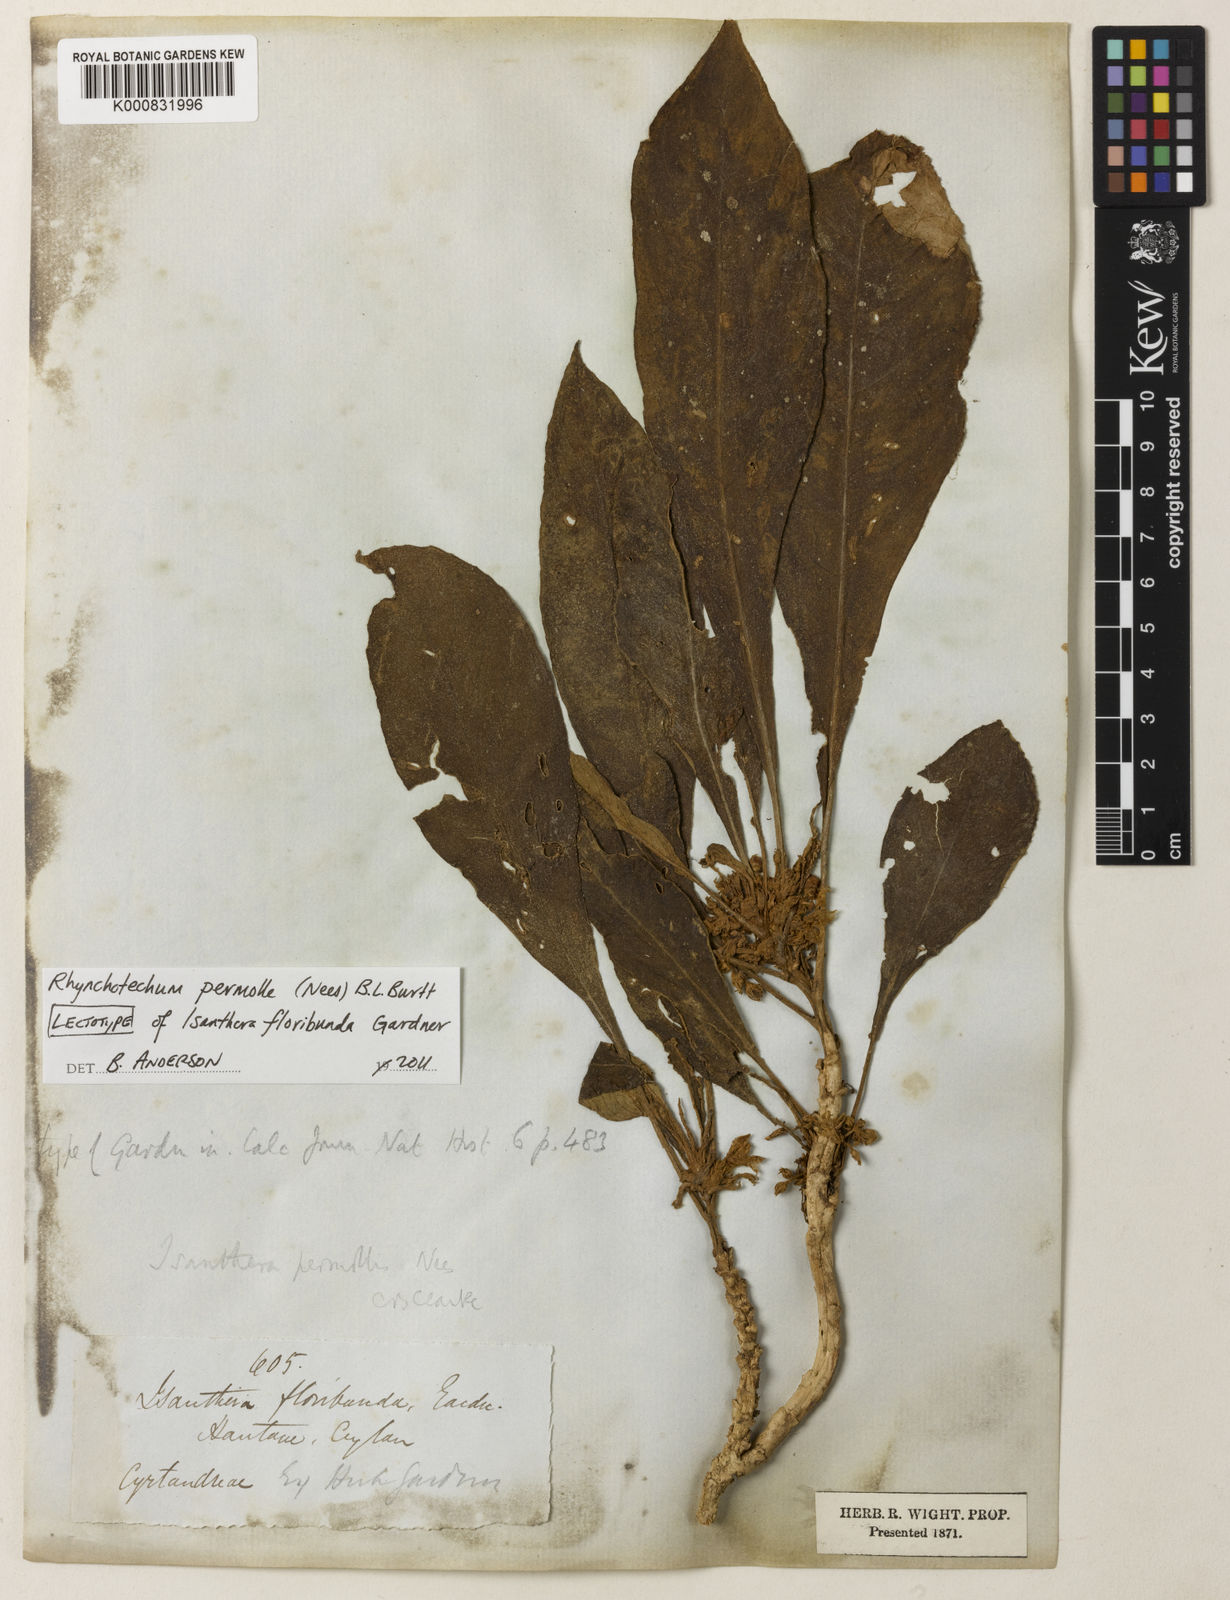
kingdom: Plantae
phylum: Tracheophyta
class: Magnoliopsida
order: Lamiales
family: Gesneriaceae
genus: Rhynchotechum
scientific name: Rhynchotechum permolle
